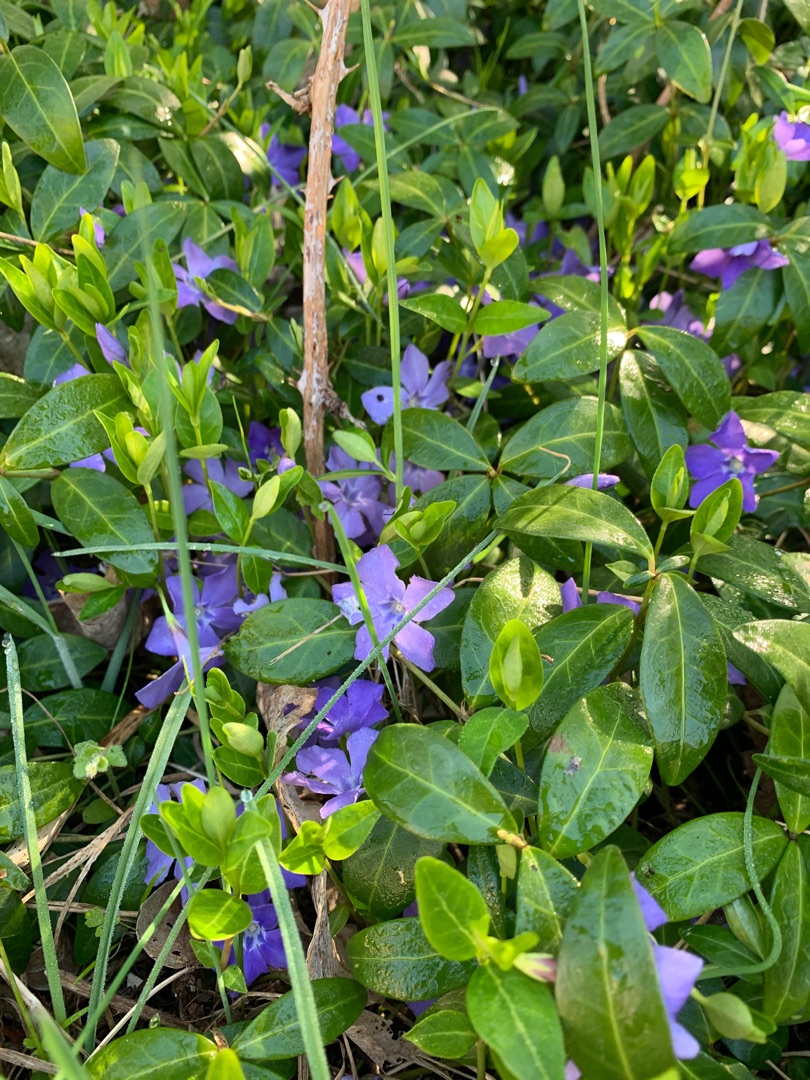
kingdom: Plantae
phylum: Tracheophyta
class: Magnoliopsida
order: Gentianales
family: Apocynaceae
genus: Vinca
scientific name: Vinca minor
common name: Liden singrøn
